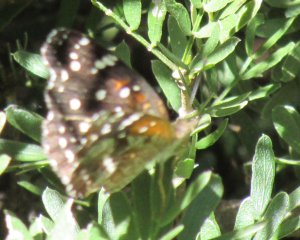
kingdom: Animalia
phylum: Arthropoda
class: Insecta
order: Lepidoptera
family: Nymphalidae
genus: Anthanassa
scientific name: Anthanassa texana
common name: Texan Crescent
